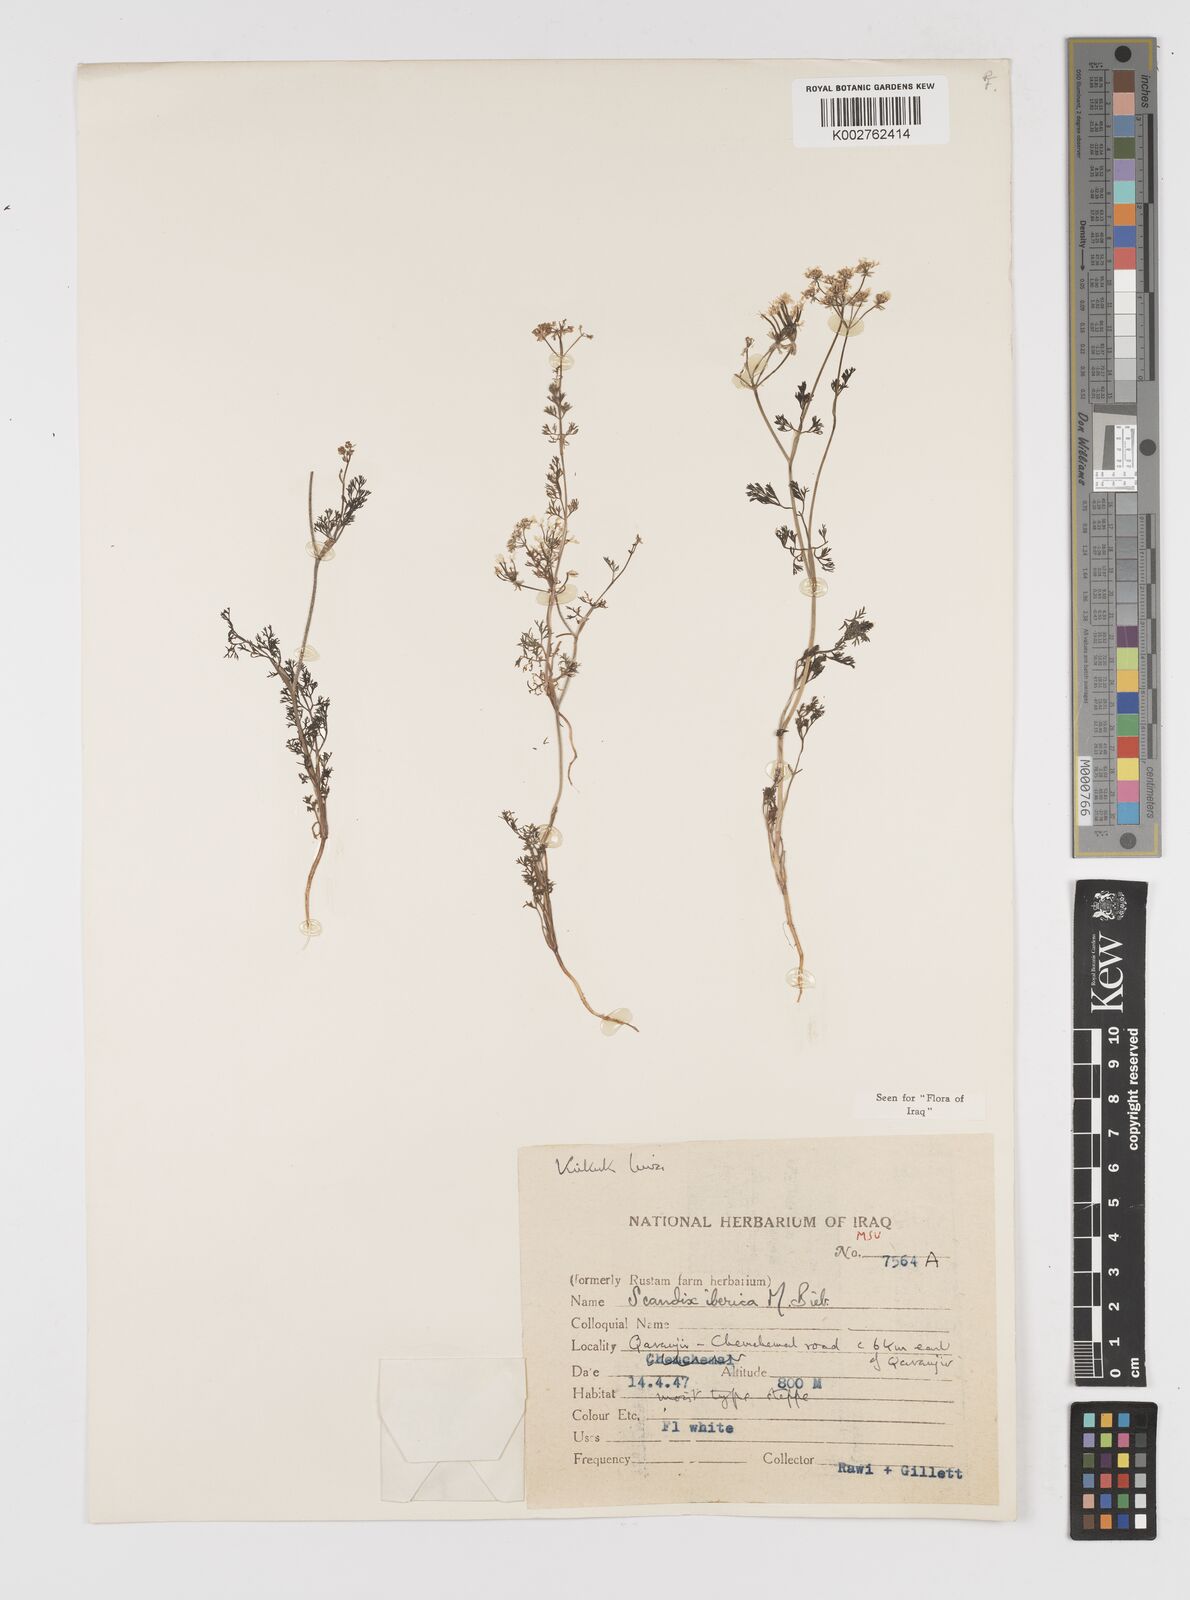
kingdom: Plantae
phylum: Tracheophyta
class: Magnoliopsida
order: Apiales
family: Apiaceae
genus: Scandix
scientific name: Scandix iberica
